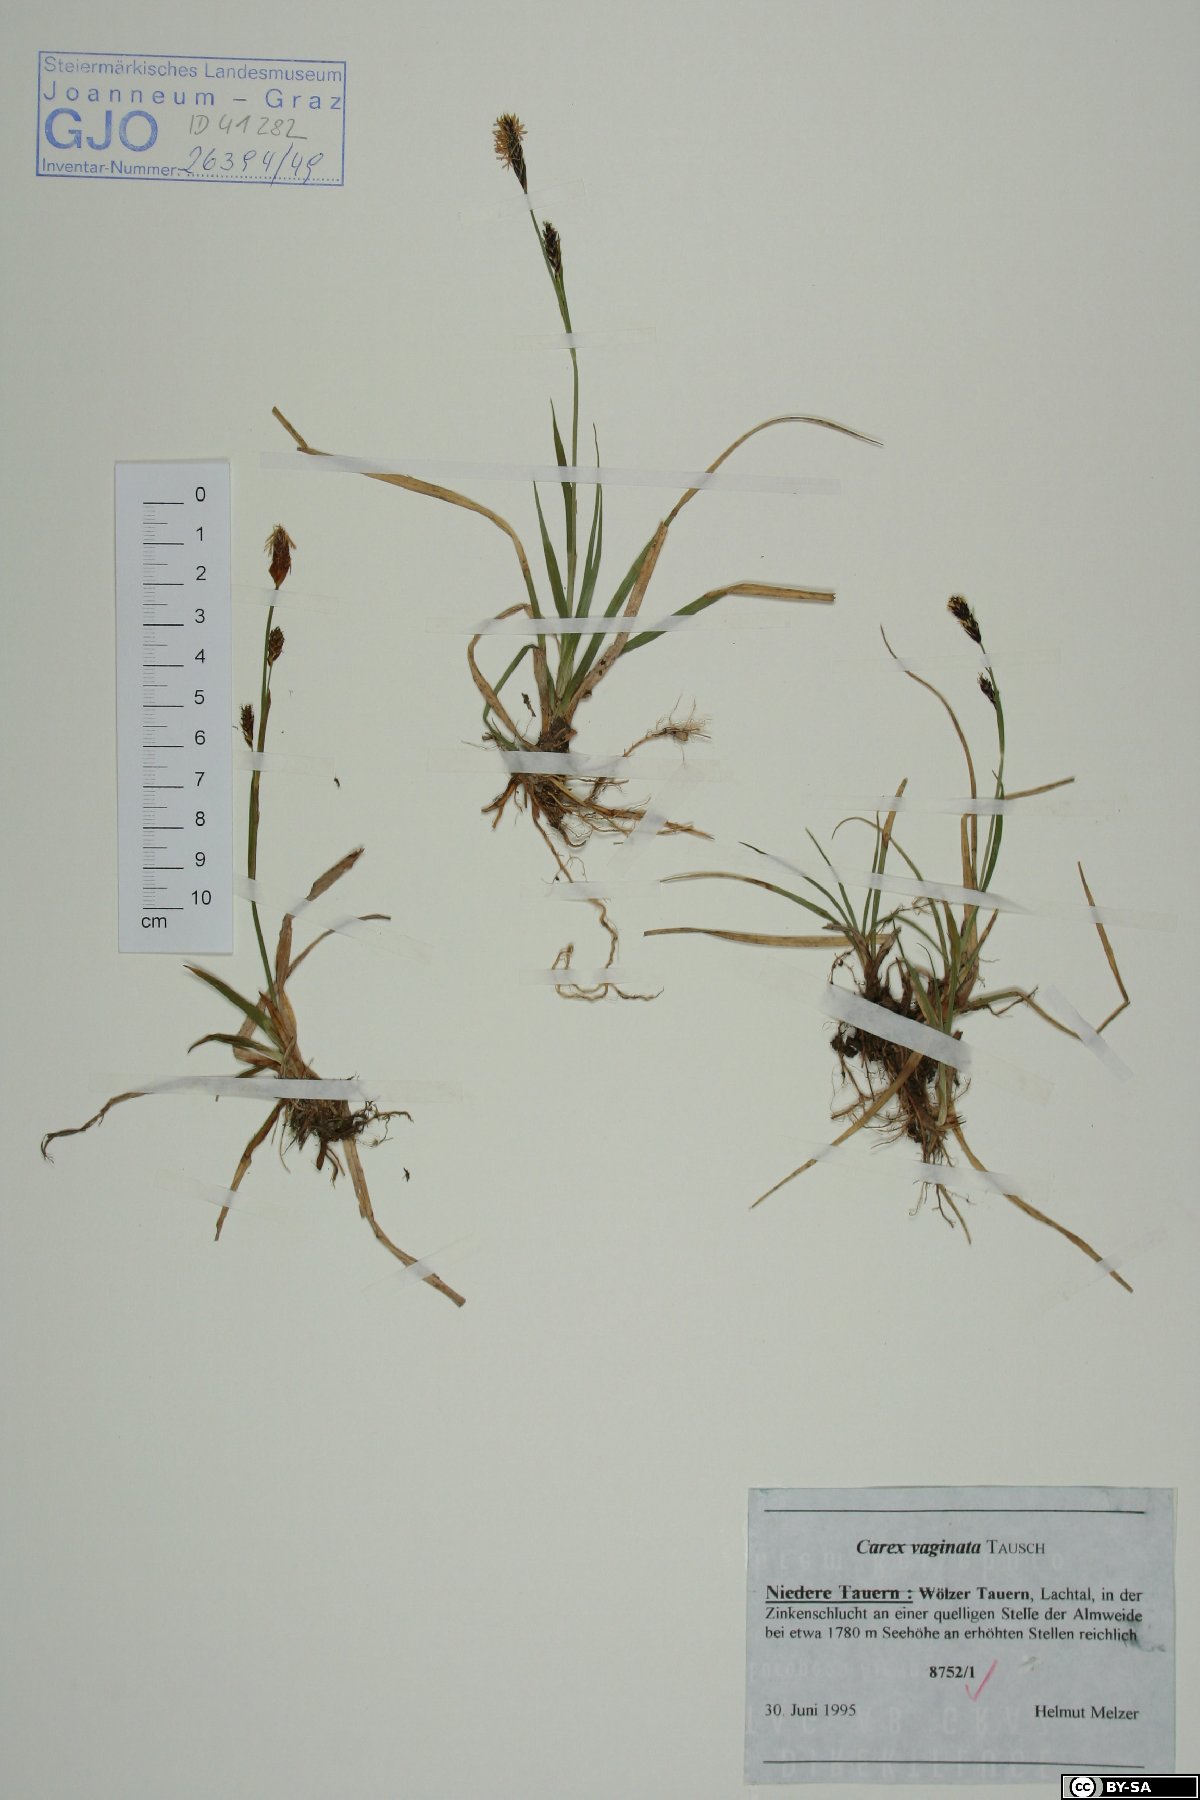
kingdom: Plantae
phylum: Tracheophyta
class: Liliopsida
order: Poales
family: Cyperaceae
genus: Carex
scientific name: Carex vaginata
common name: Sheathed sedge
